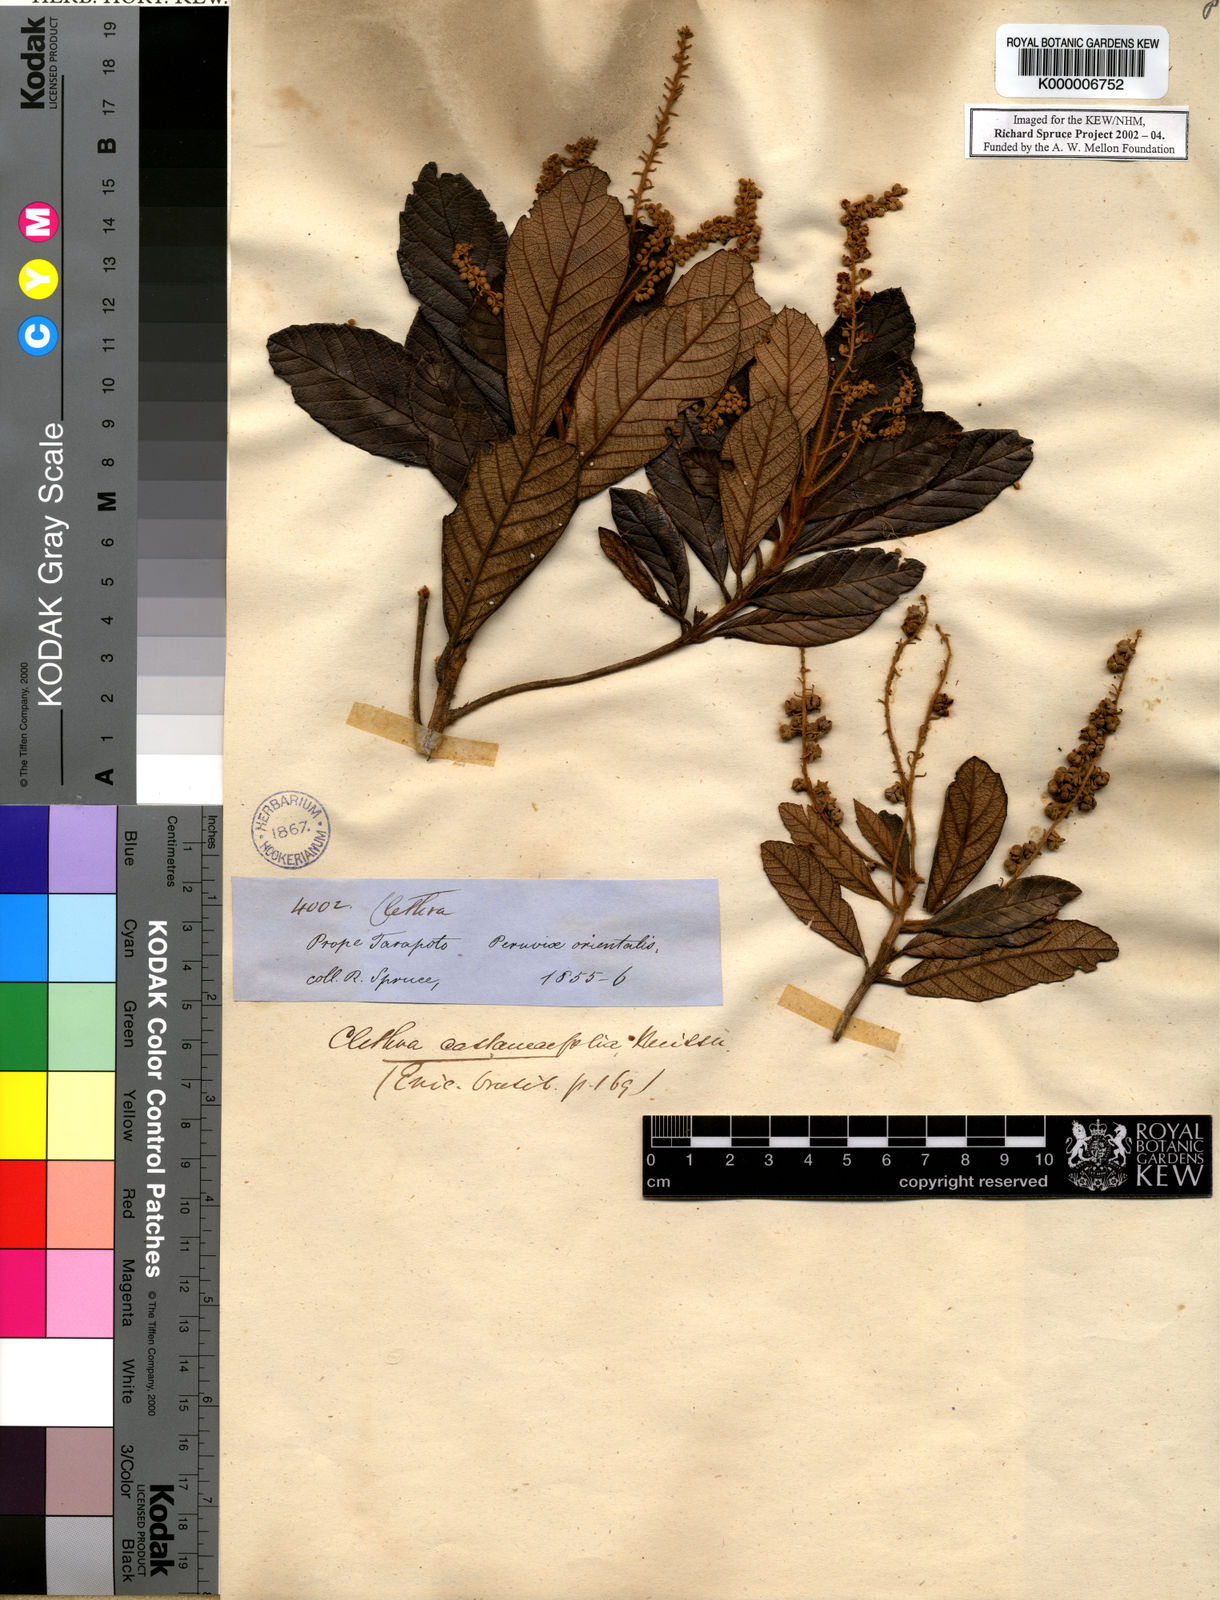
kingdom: Plantae
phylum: Tracheophyta
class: Magnoliopsida
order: Ericales
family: Clethraceae
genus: Clethra
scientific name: Clethra castaneifolia
